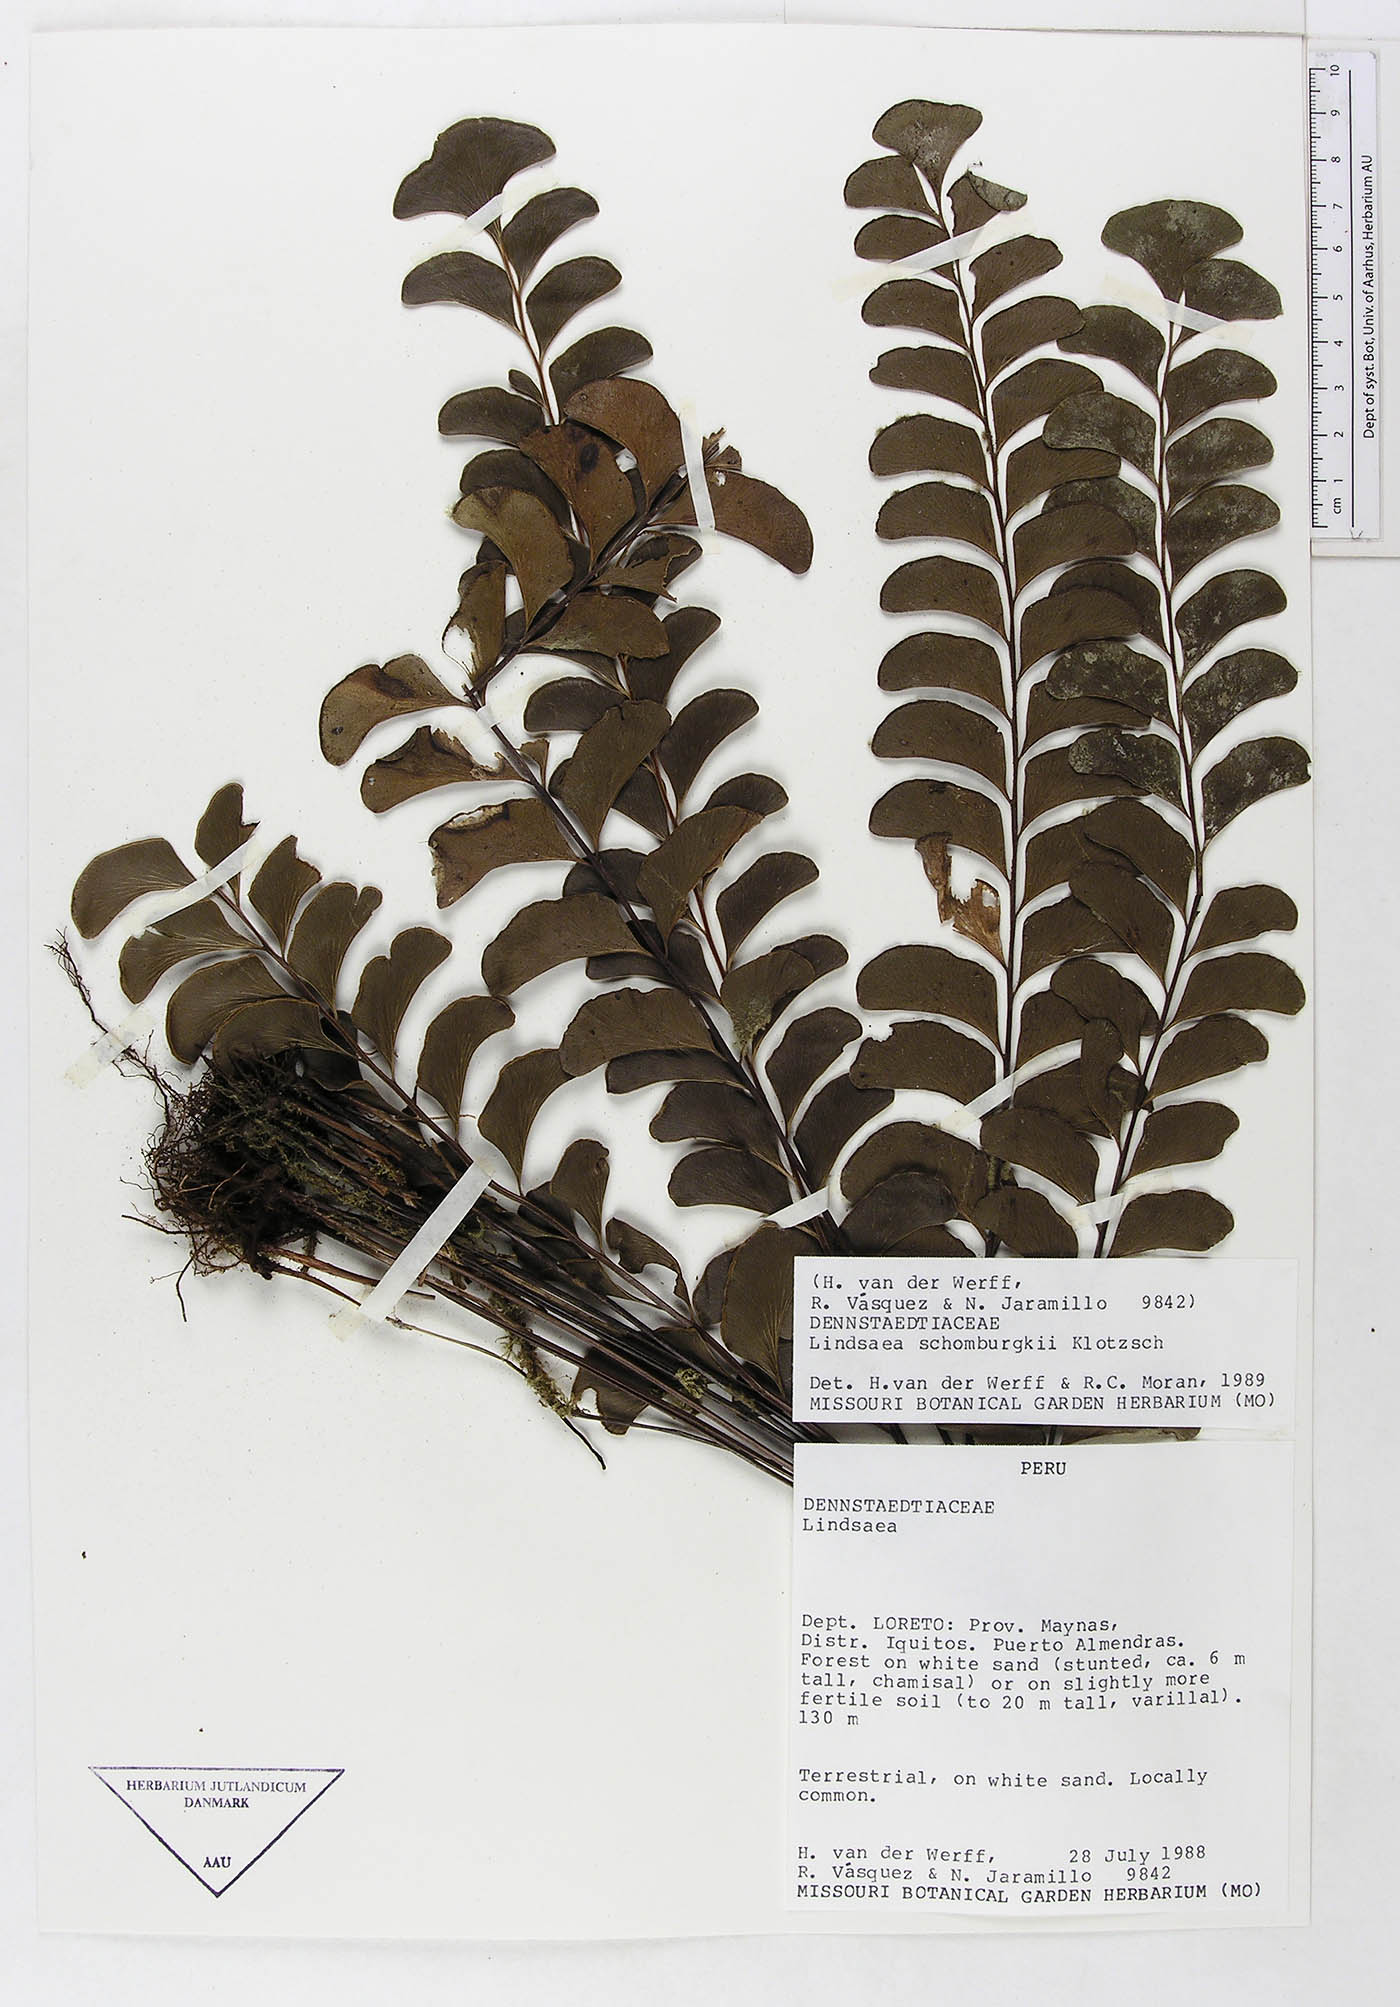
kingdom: Plantae
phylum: Tracheophyta
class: Polypodiopsida
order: Polypodiales
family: Dennstaedtiaceae
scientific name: Dennstaedtiaceae
